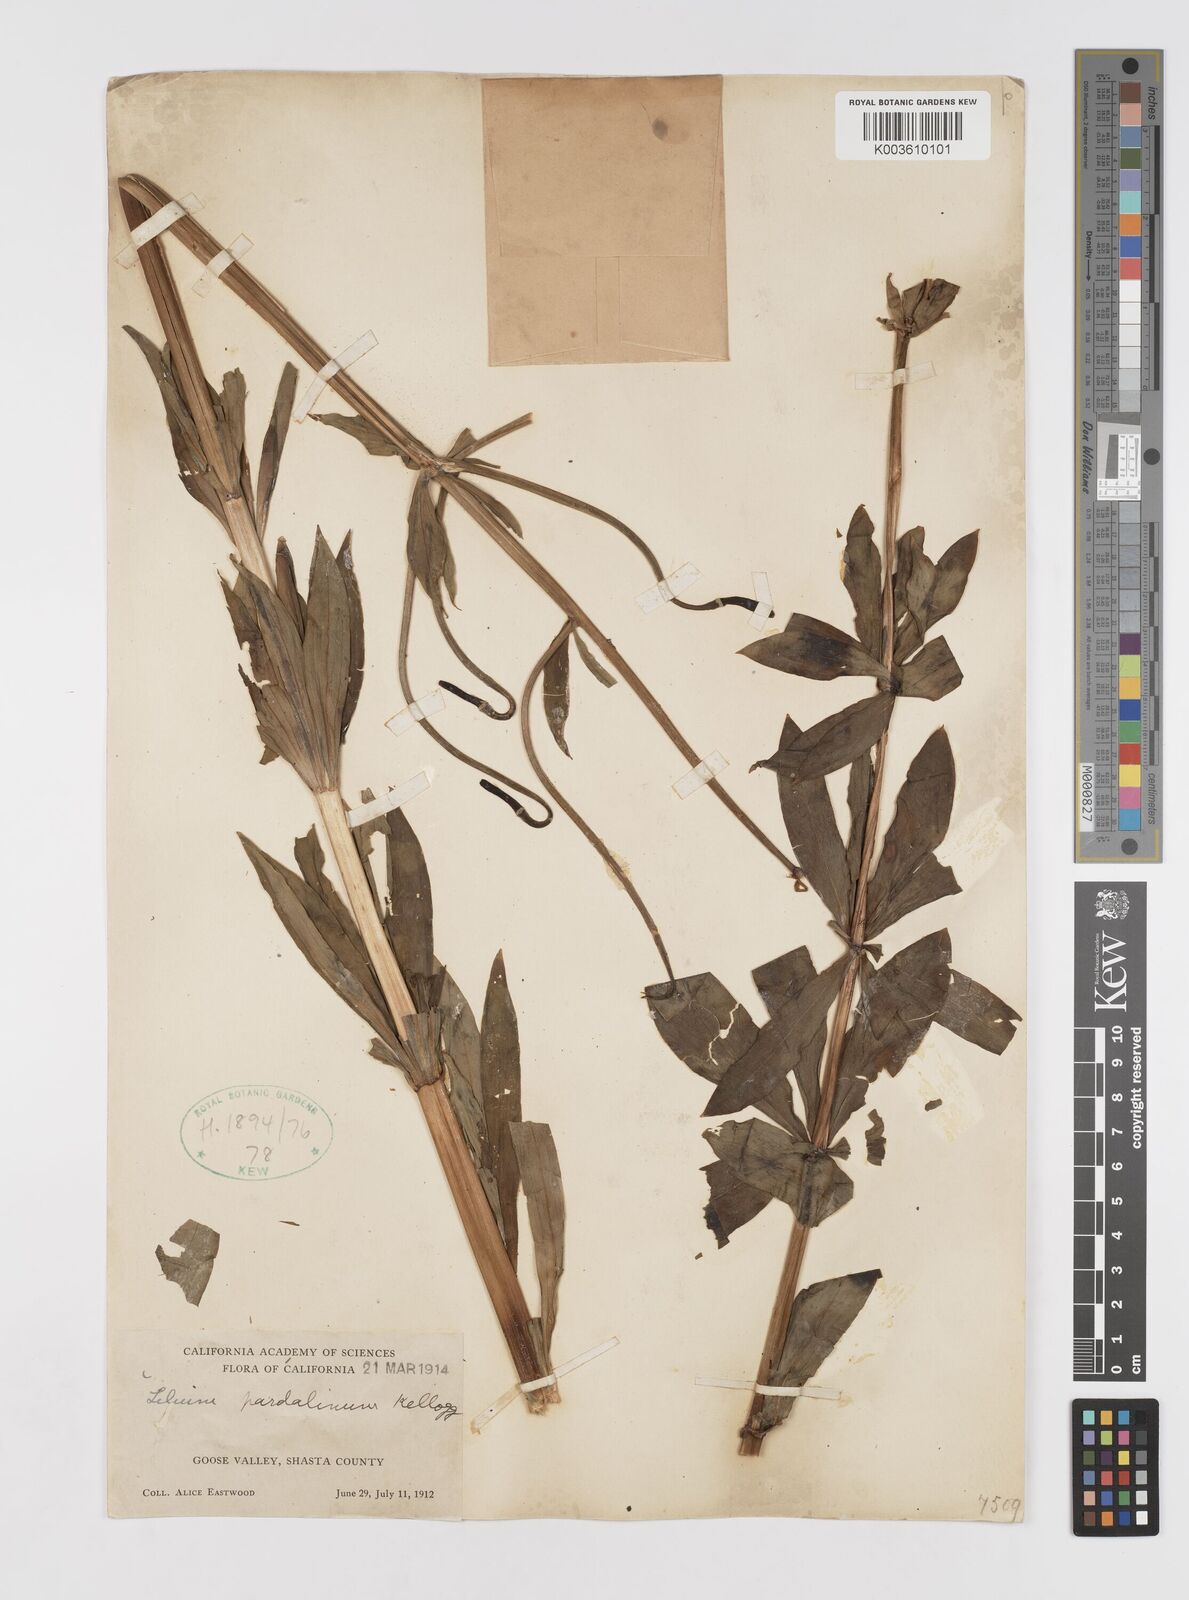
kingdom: Plantae
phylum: Tracheophyta
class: Liliopsida
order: Liliales
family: Liliaceae
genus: Lilium
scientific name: Lilium pardalinum
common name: Panther lily
